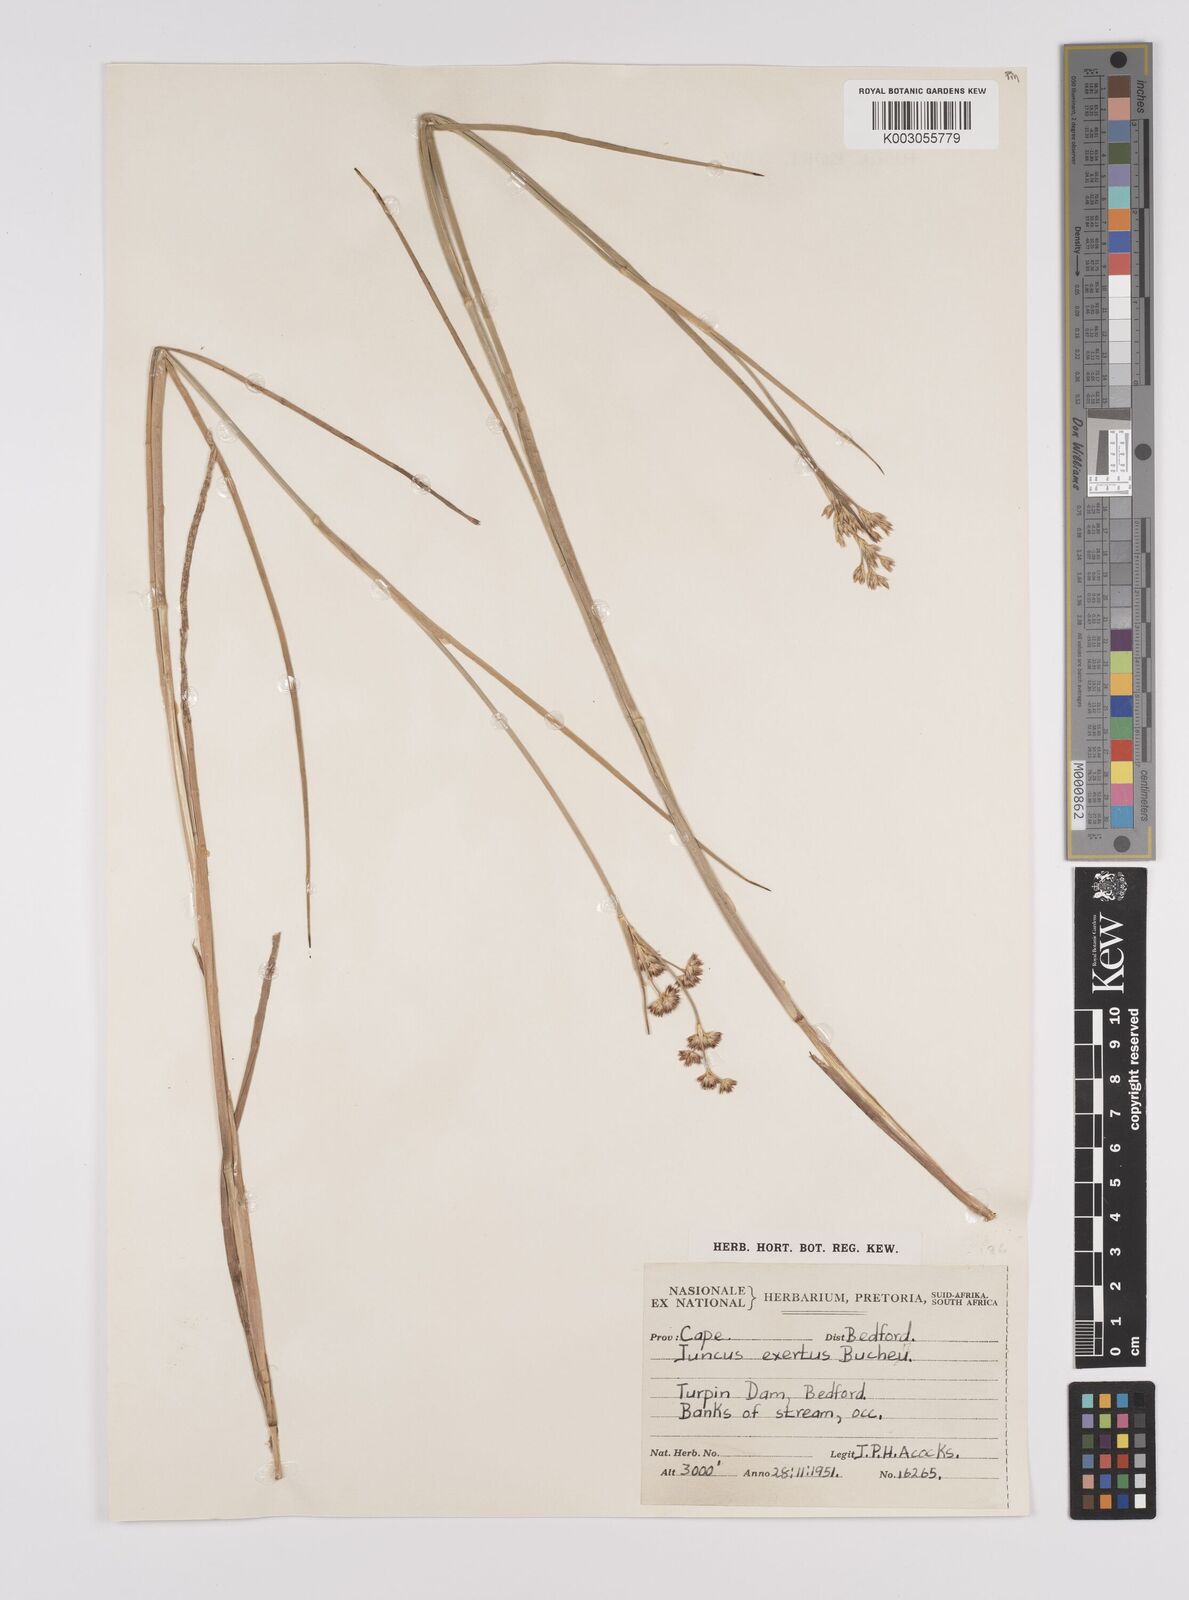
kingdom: Plantae
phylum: Tracheophyta
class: Liliopsida
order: Poales
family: Juncaceae
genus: Juncus
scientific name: Juncus exsertus
